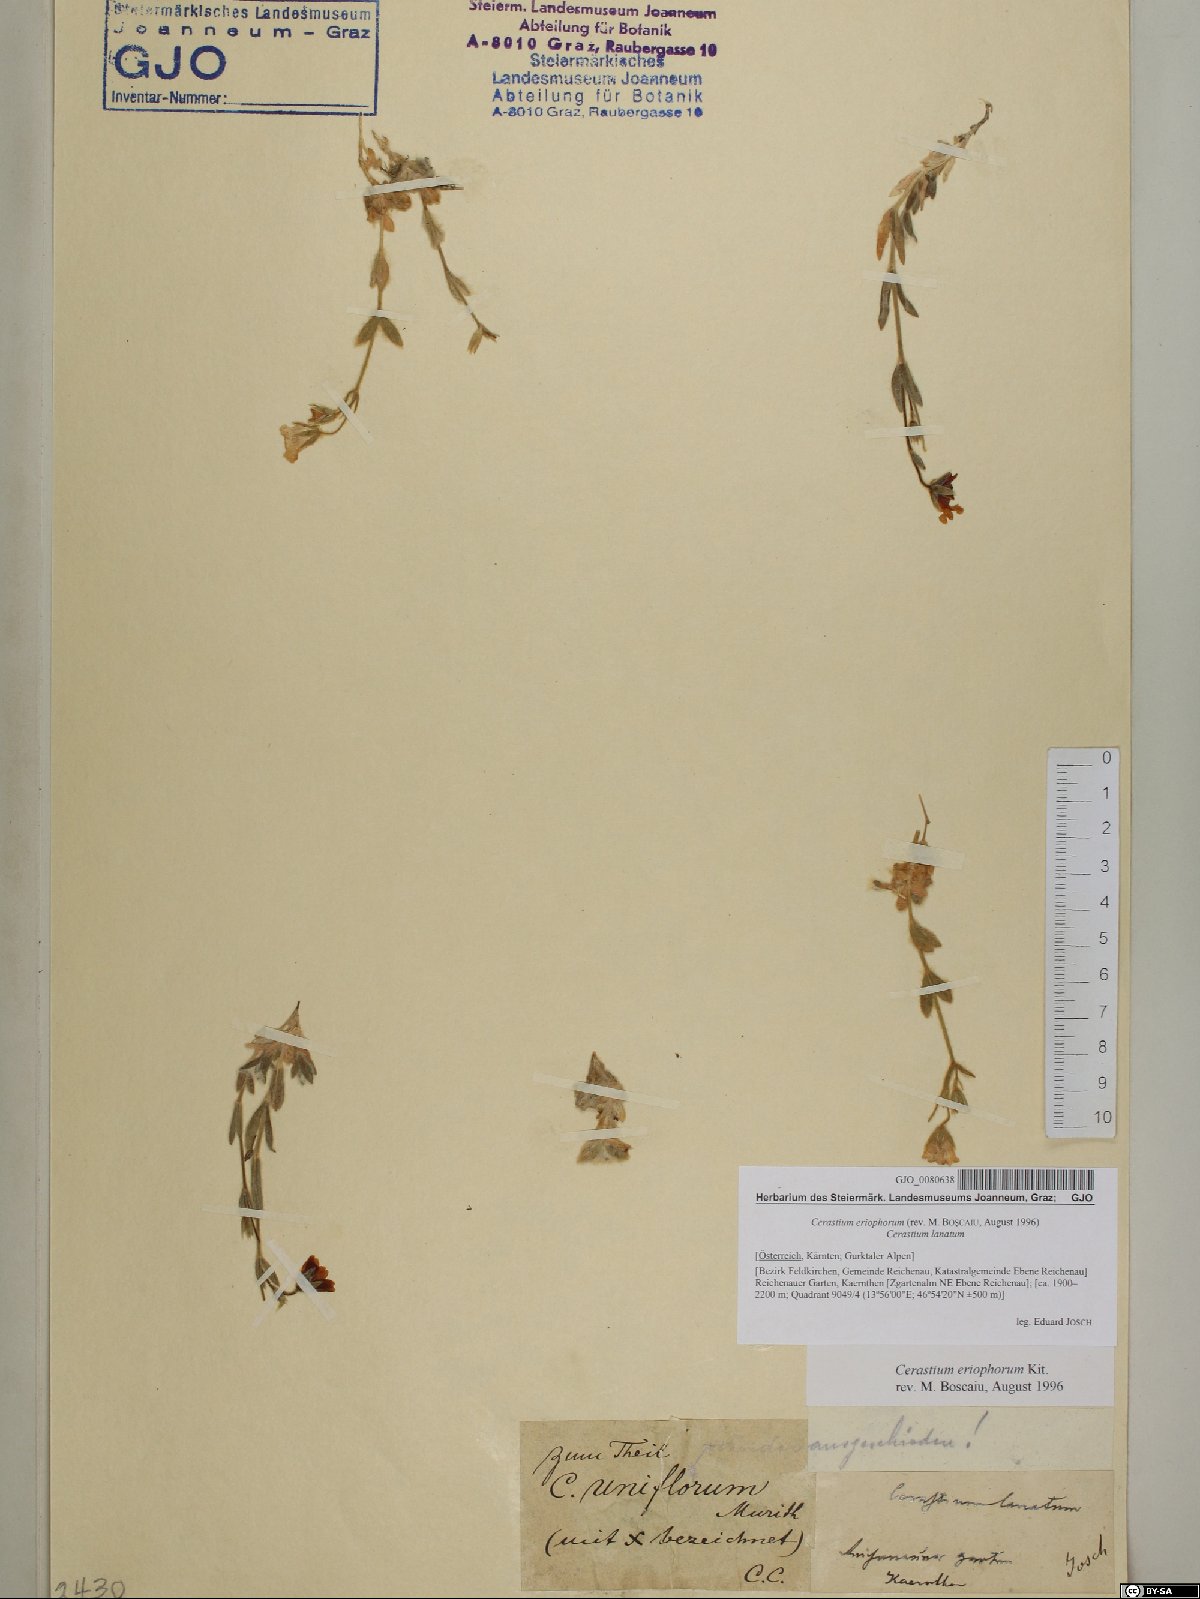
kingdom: Plantae
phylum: Tracheophyta
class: Magnoliopsida
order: Caryophyllales
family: Caryophyllaceae
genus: Cerastium
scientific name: Cerastium eriophorum
